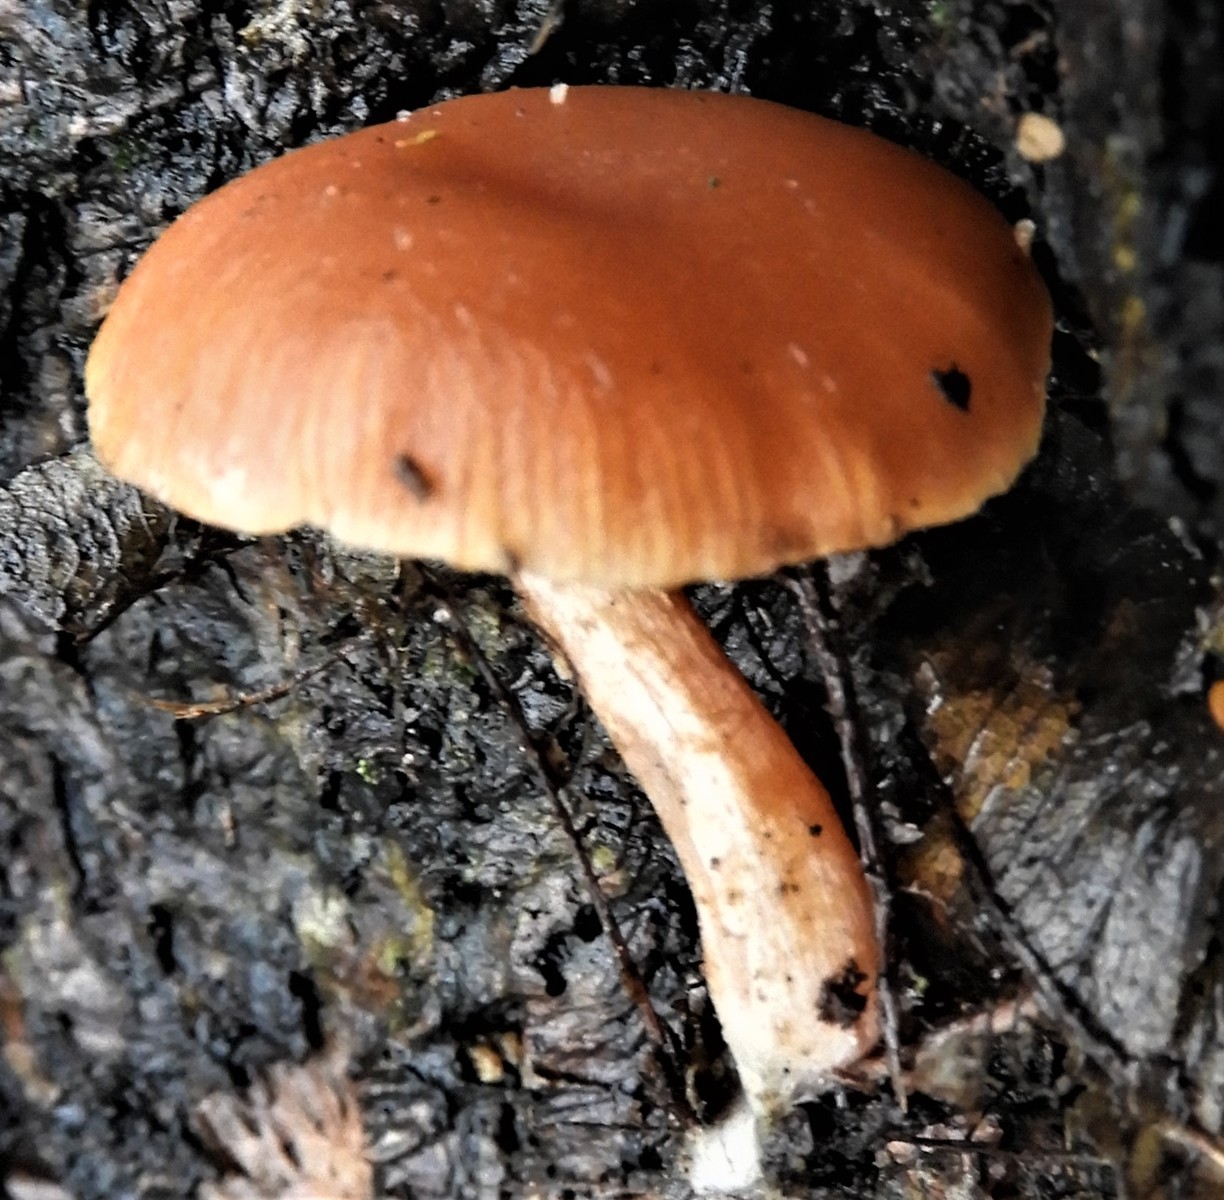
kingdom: Fungi
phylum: Basidiomycota
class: Agaricomycetes
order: Agaricales
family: Tubariaceae
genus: Tubaria
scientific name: Tubaria furfuracea
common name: kliddet fnughat
